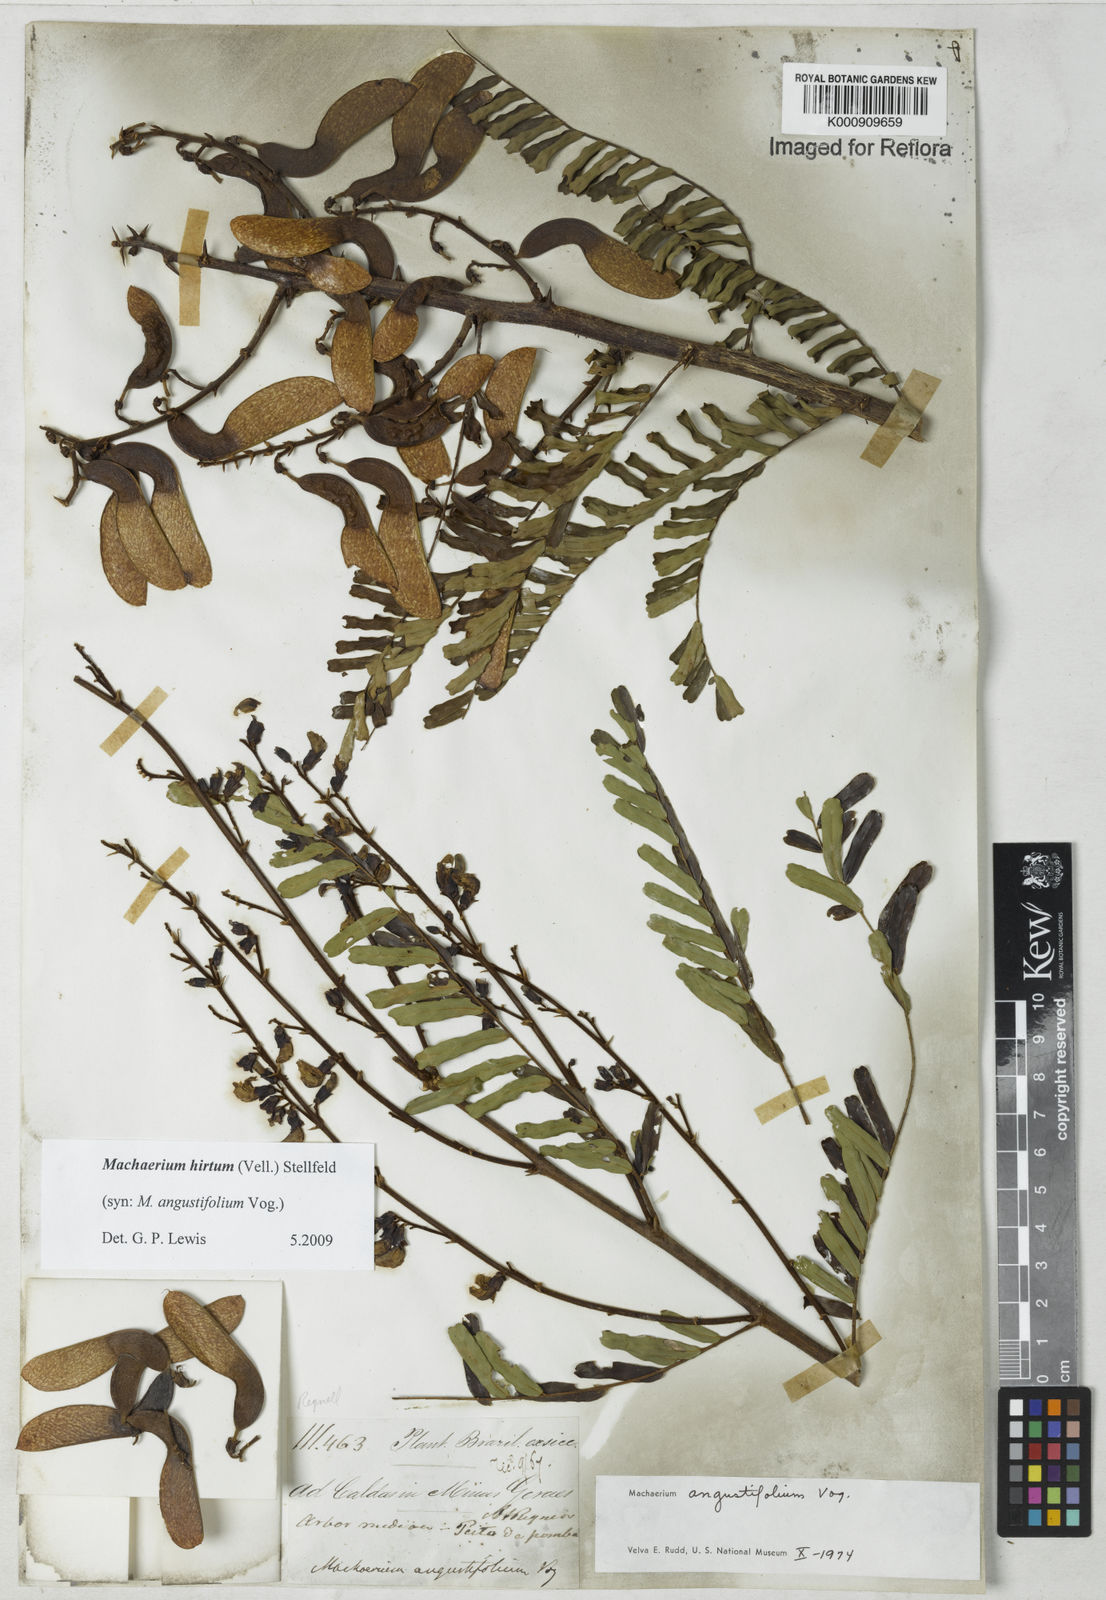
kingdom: Plantae
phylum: Tracheophyta
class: Magnoliopsida
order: Fabales
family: Fabaceae
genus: Machaerium
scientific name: Machaerium hirtum
